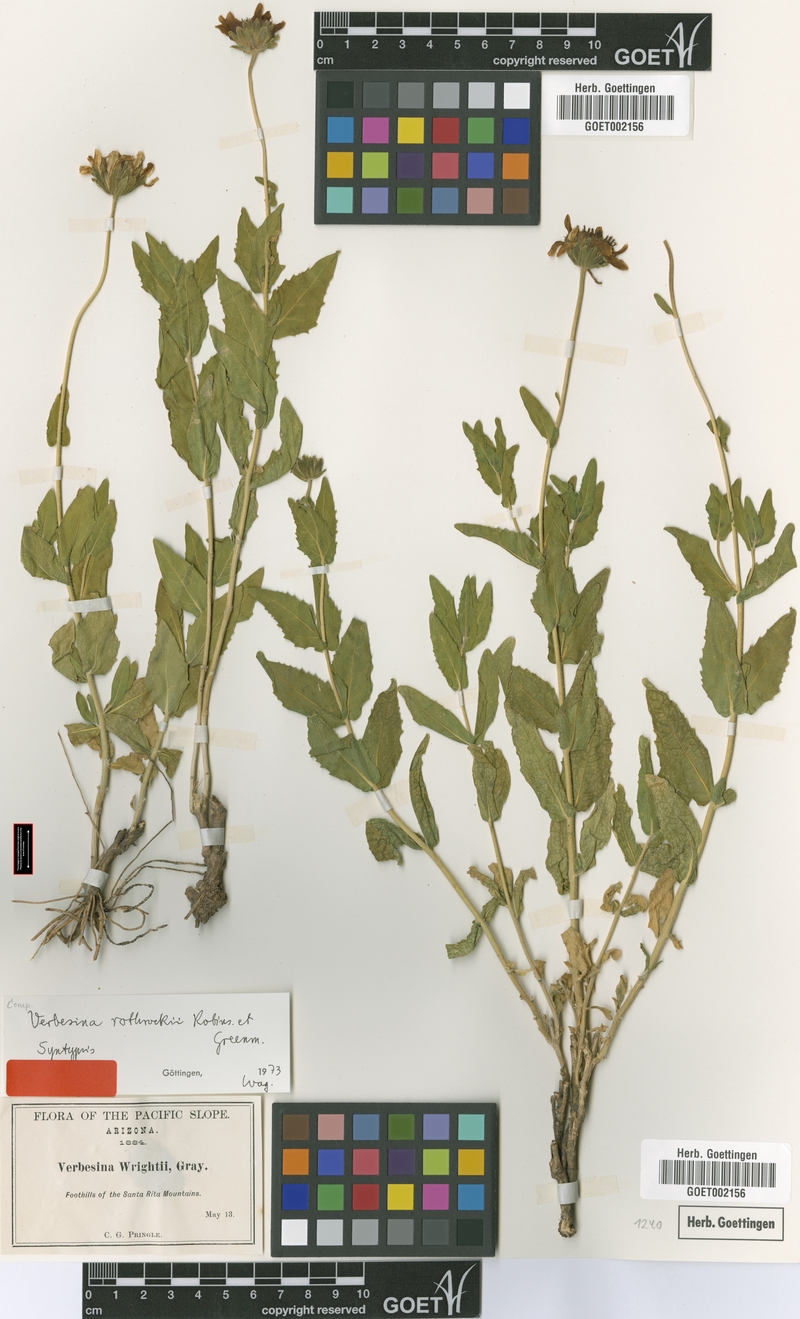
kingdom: Plantae
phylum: Tracheophyta
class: Magnoliopsida
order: Asterales
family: Asteraceae
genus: Verbesina
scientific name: Verbesina rothrockii
